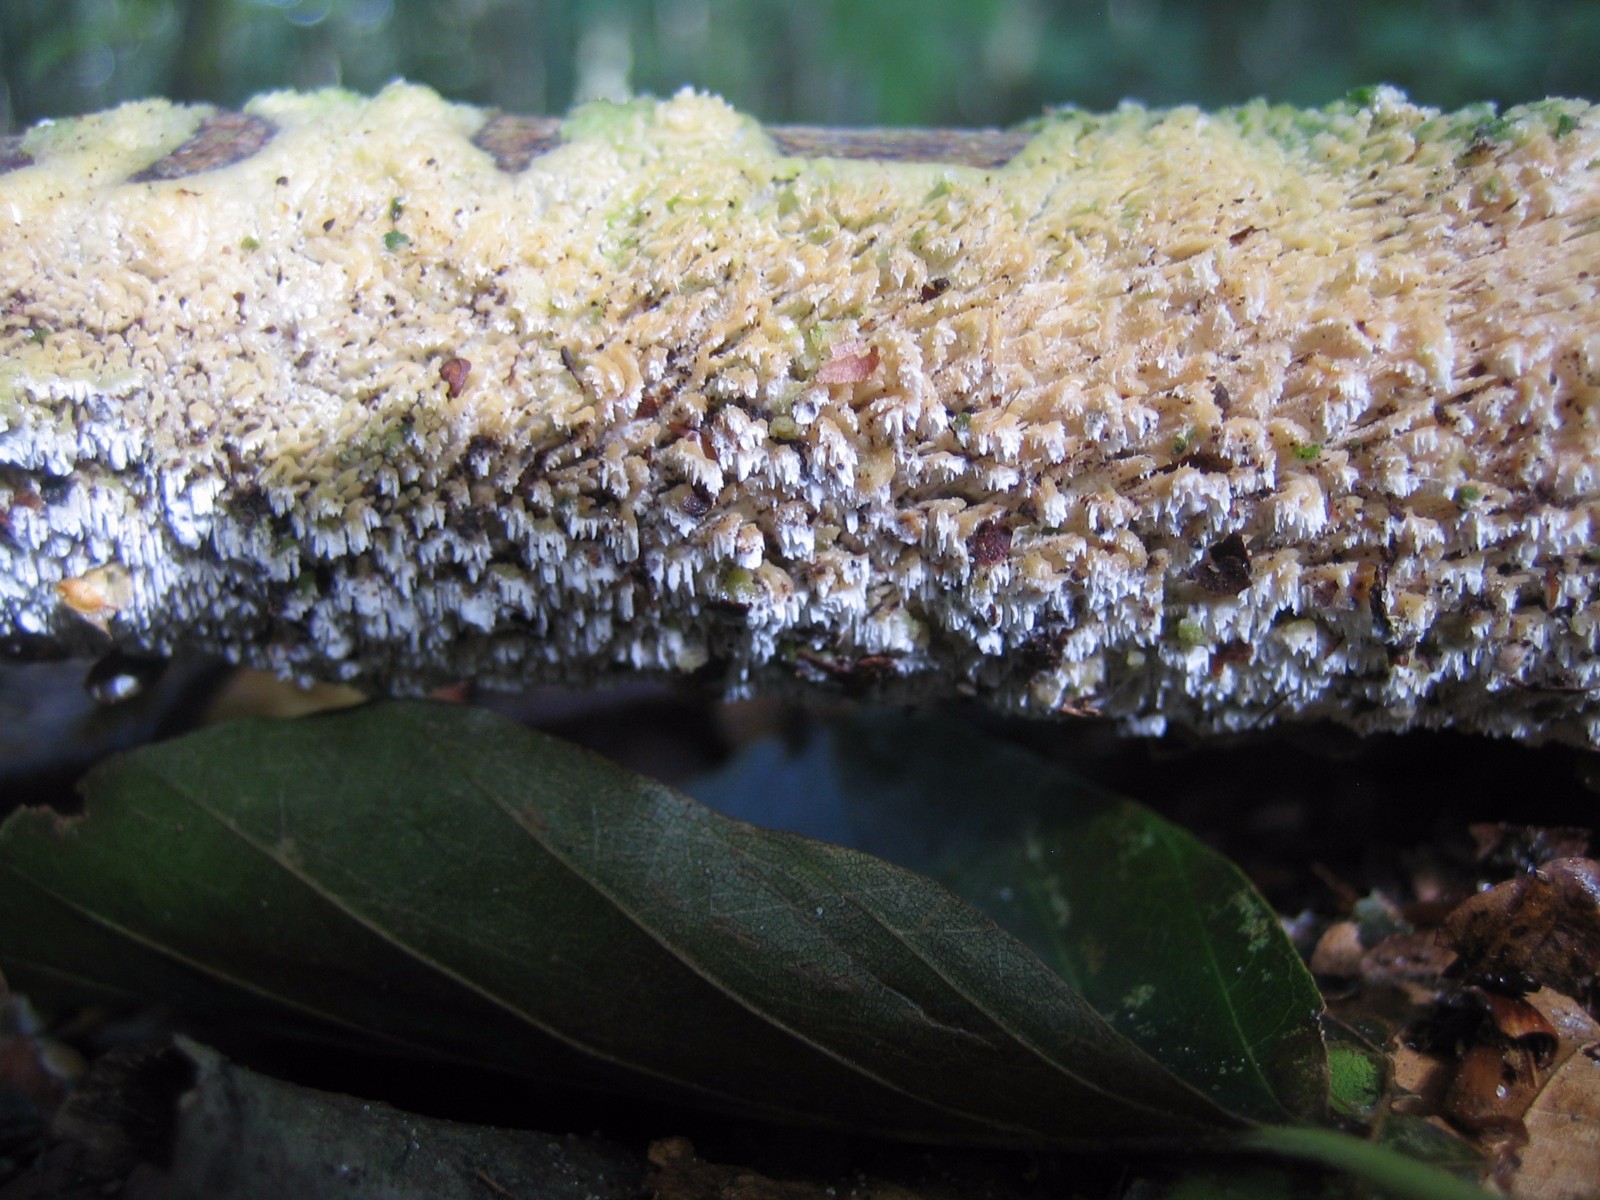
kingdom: Fungi
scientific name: Fungi
